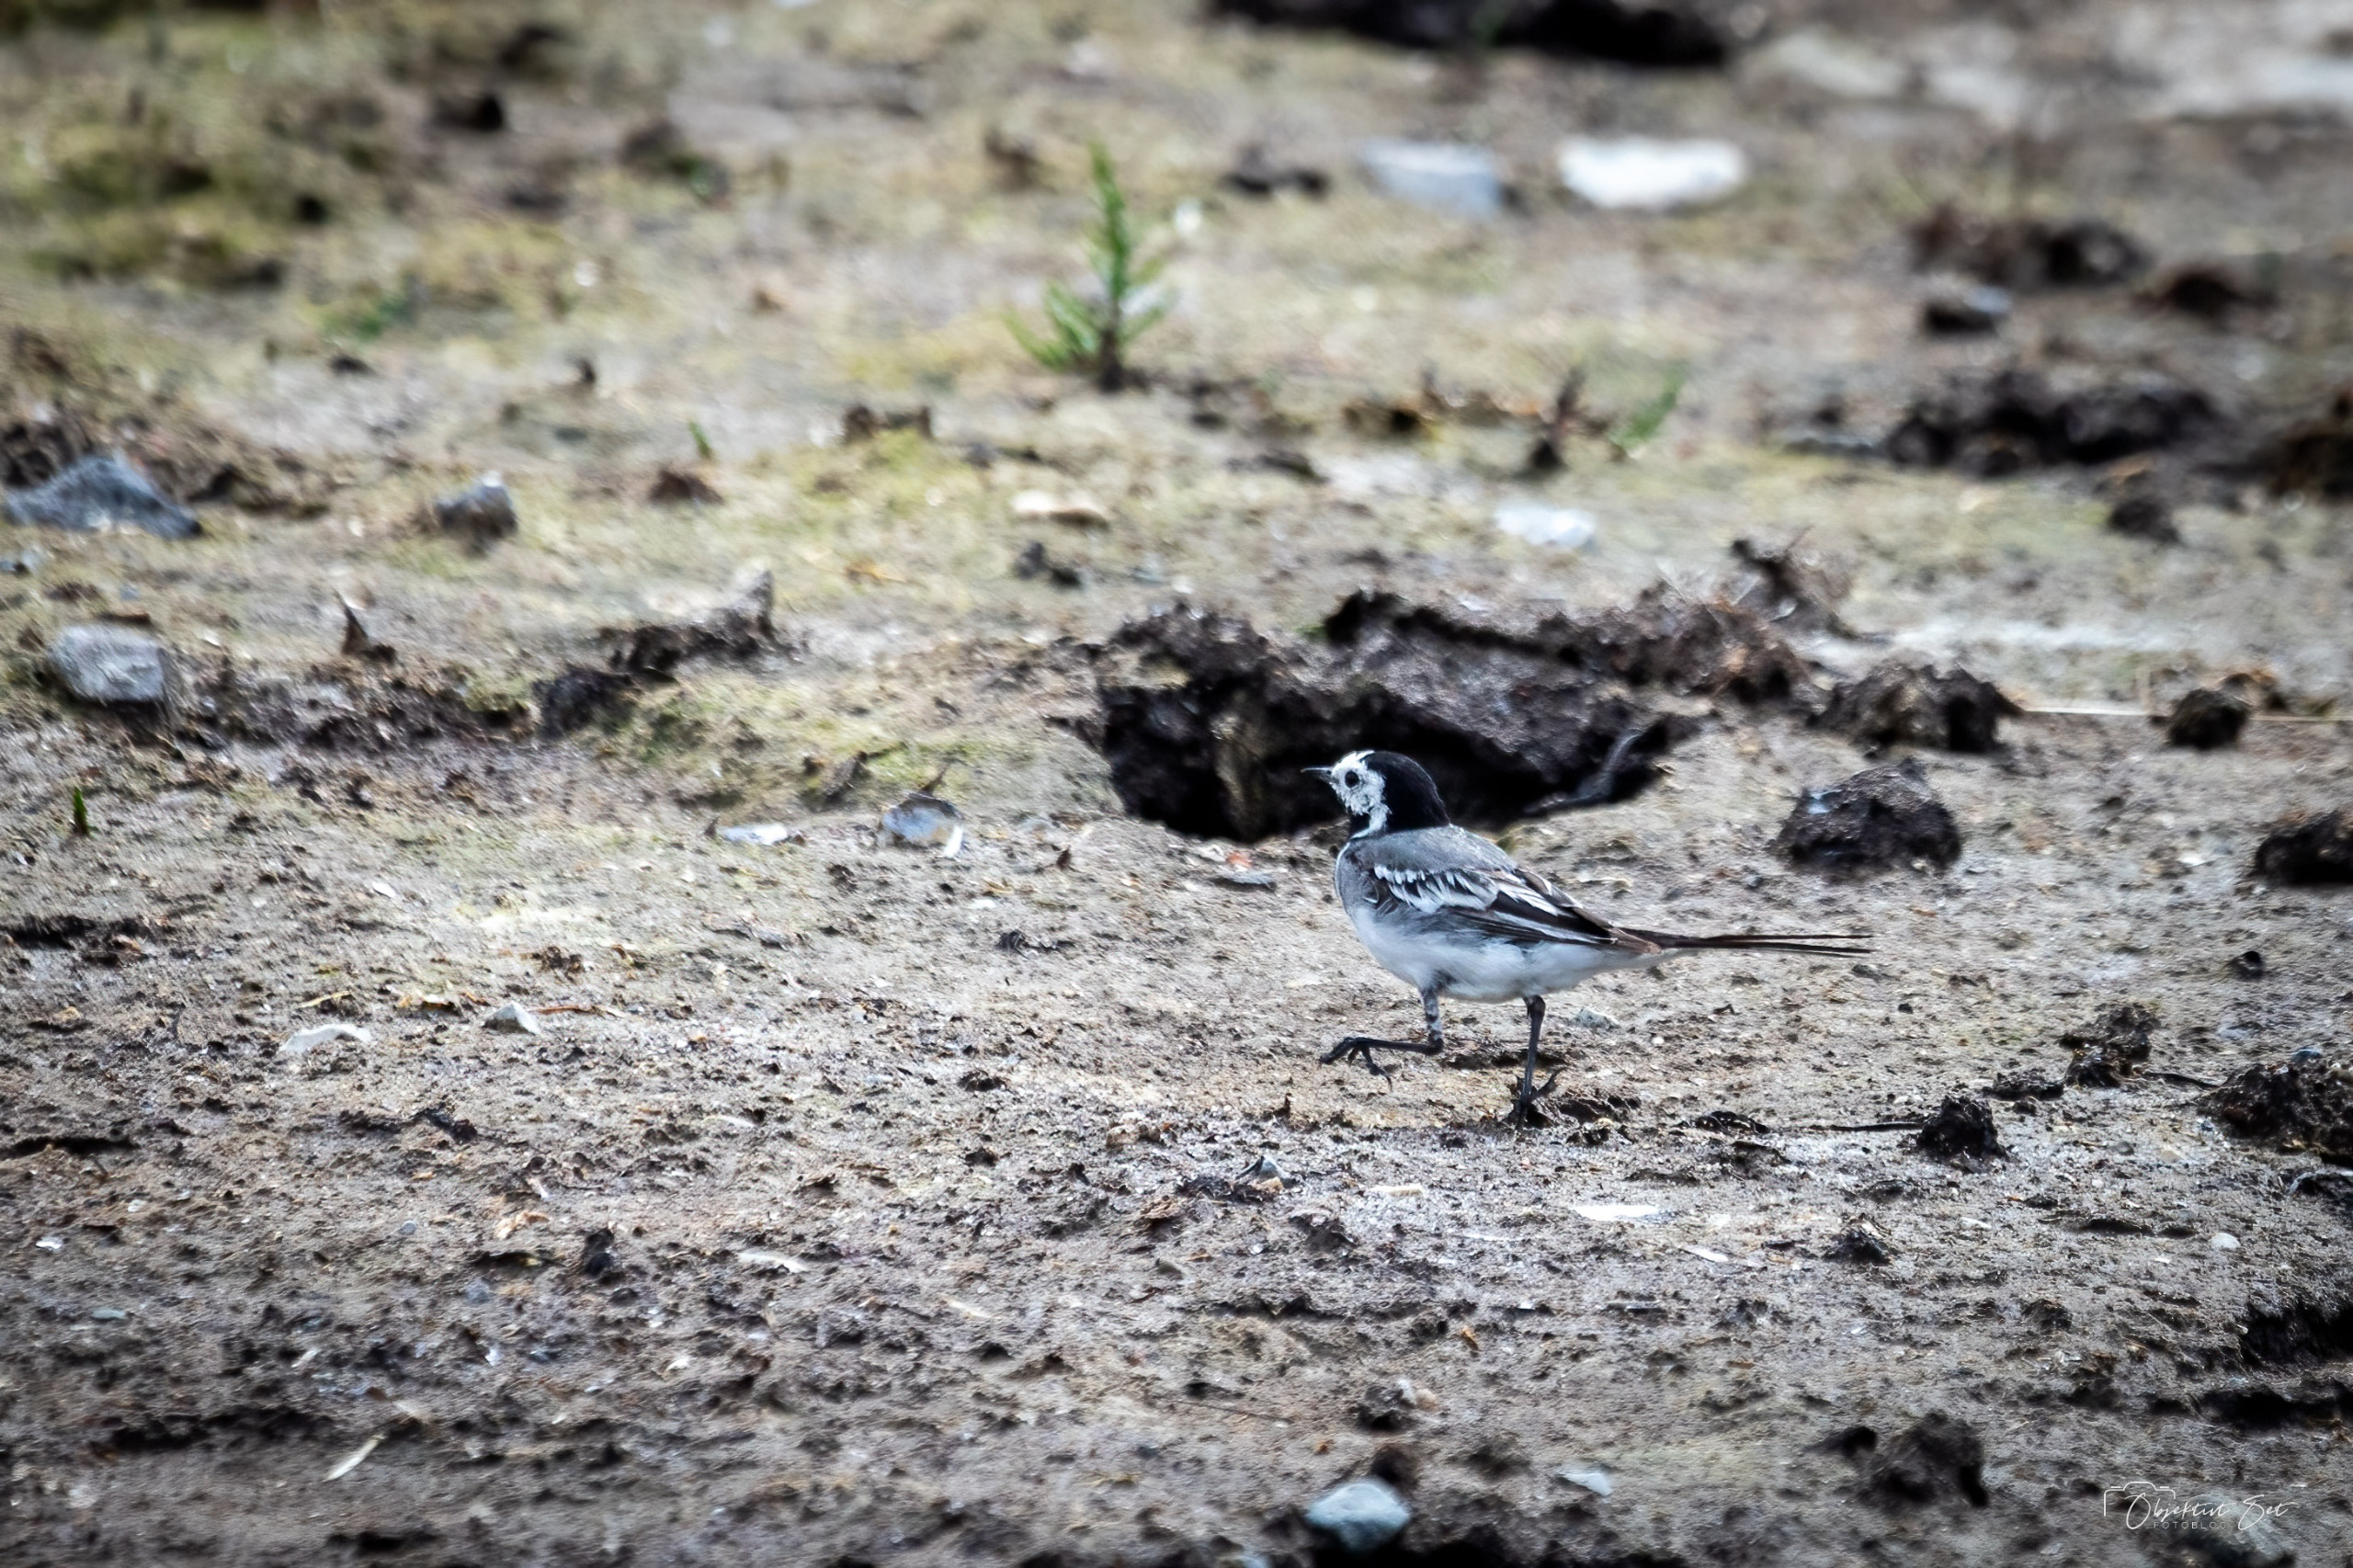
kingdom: Animalia
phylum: Chordata
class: Aves
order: Passeriformes
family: Motacillidae
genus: Motacilla
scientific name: Motacilla alba
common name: Hvid vipstjert
